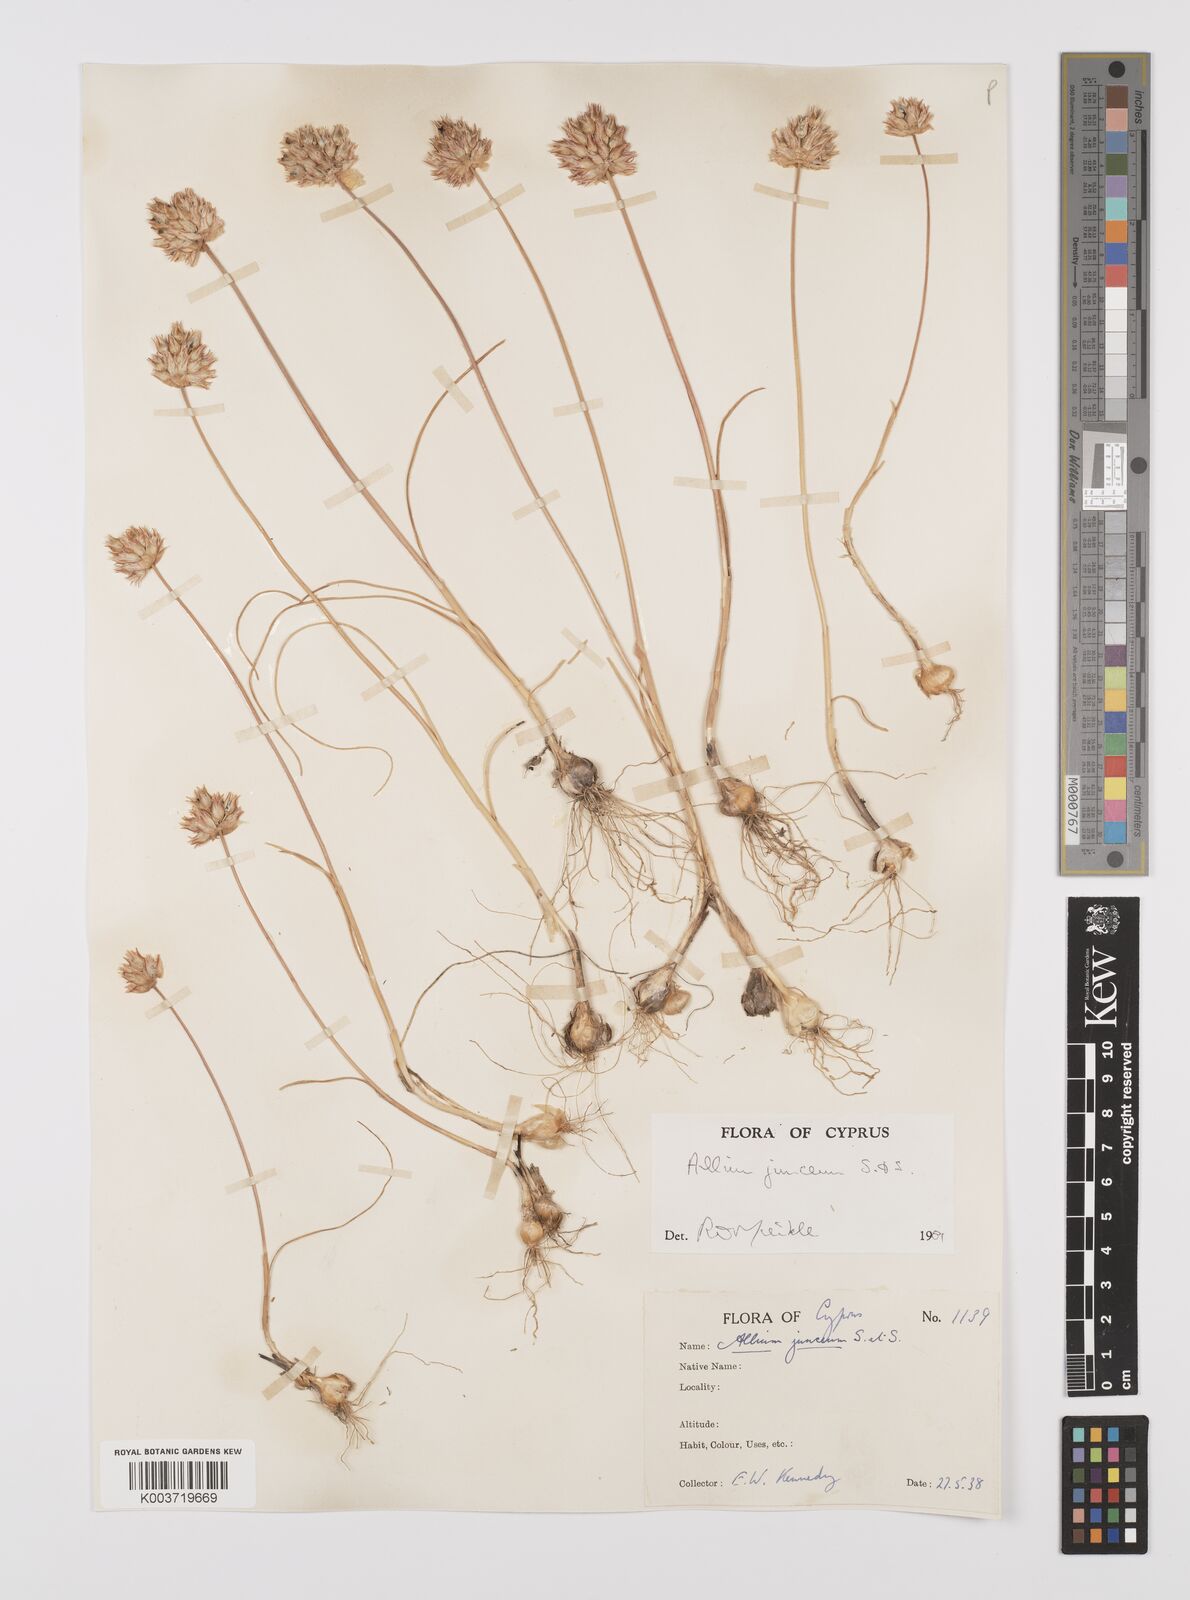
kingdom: Plantae
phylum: Tracheophyta
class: Liliopsida
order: Asparagales
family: Amaryllidaceae
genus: Allium
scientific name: Allium junceum
